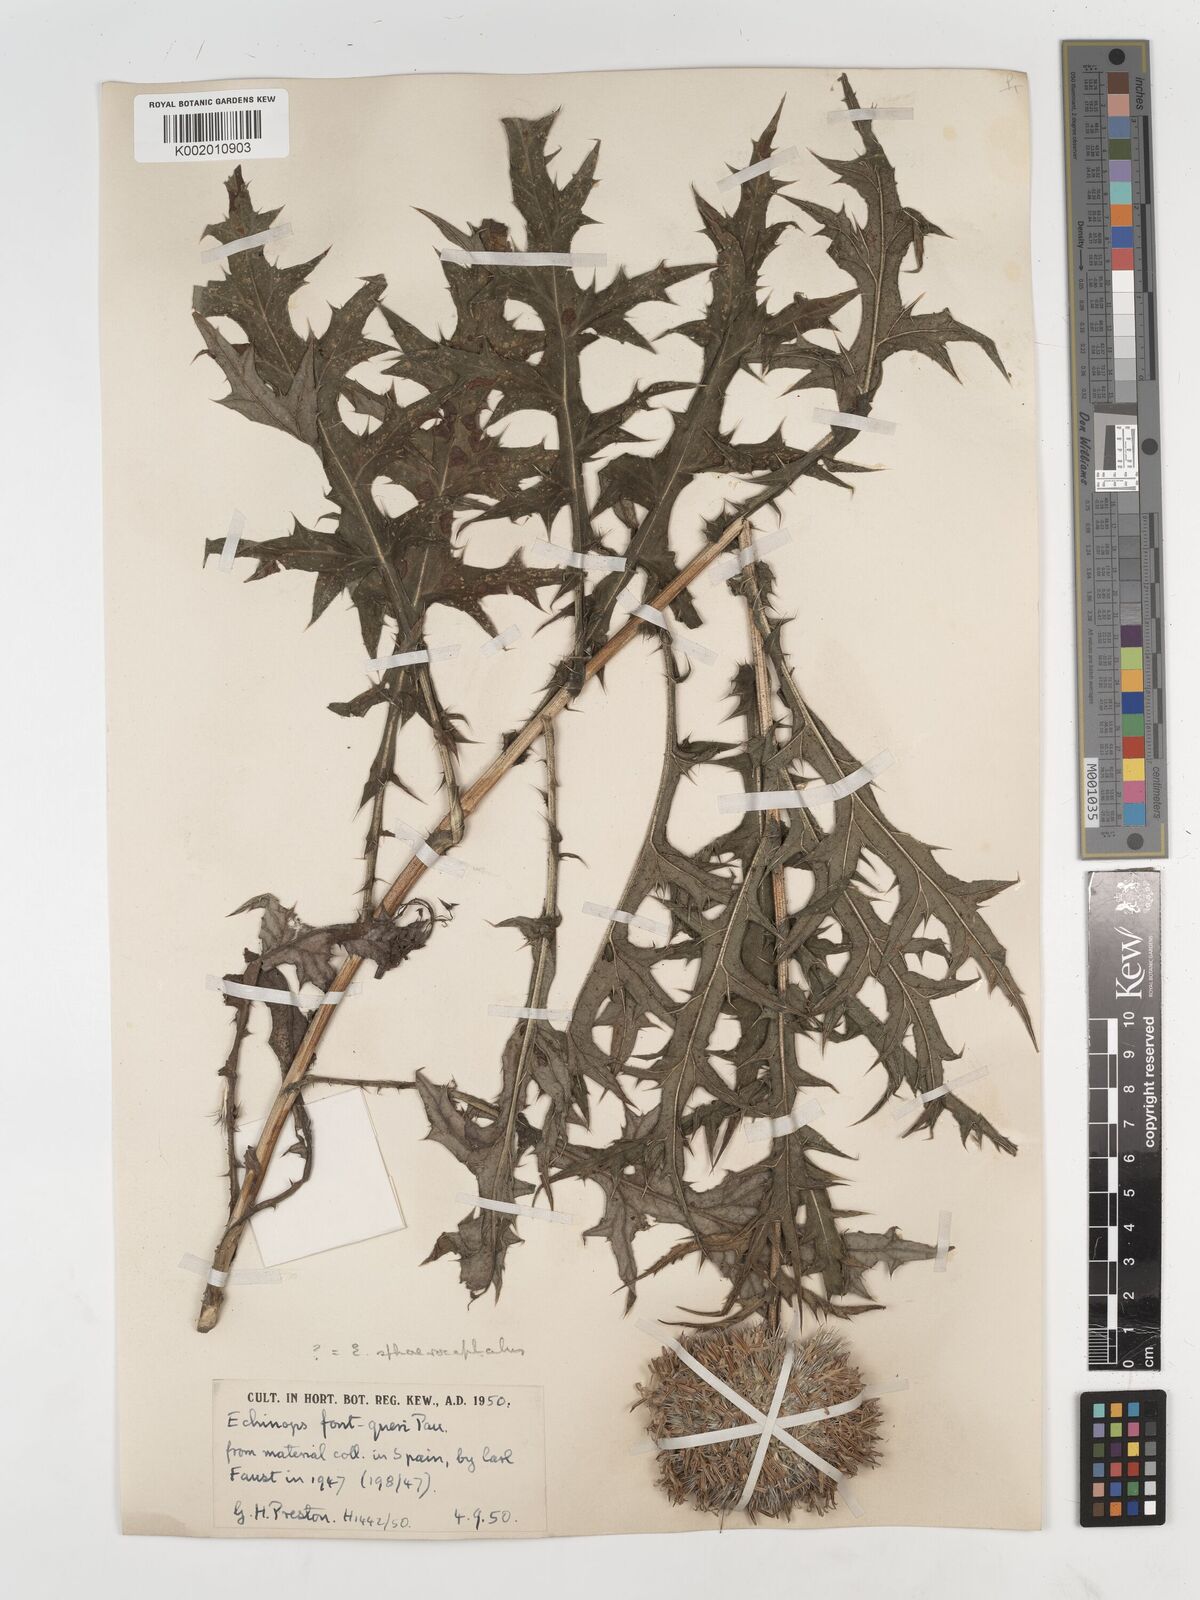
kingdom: Plantae
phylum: Tracheophyta
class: Magnoliopsida
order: Asterales
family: Asteraceae
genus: Echinops
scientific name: Echinops fontqueri
